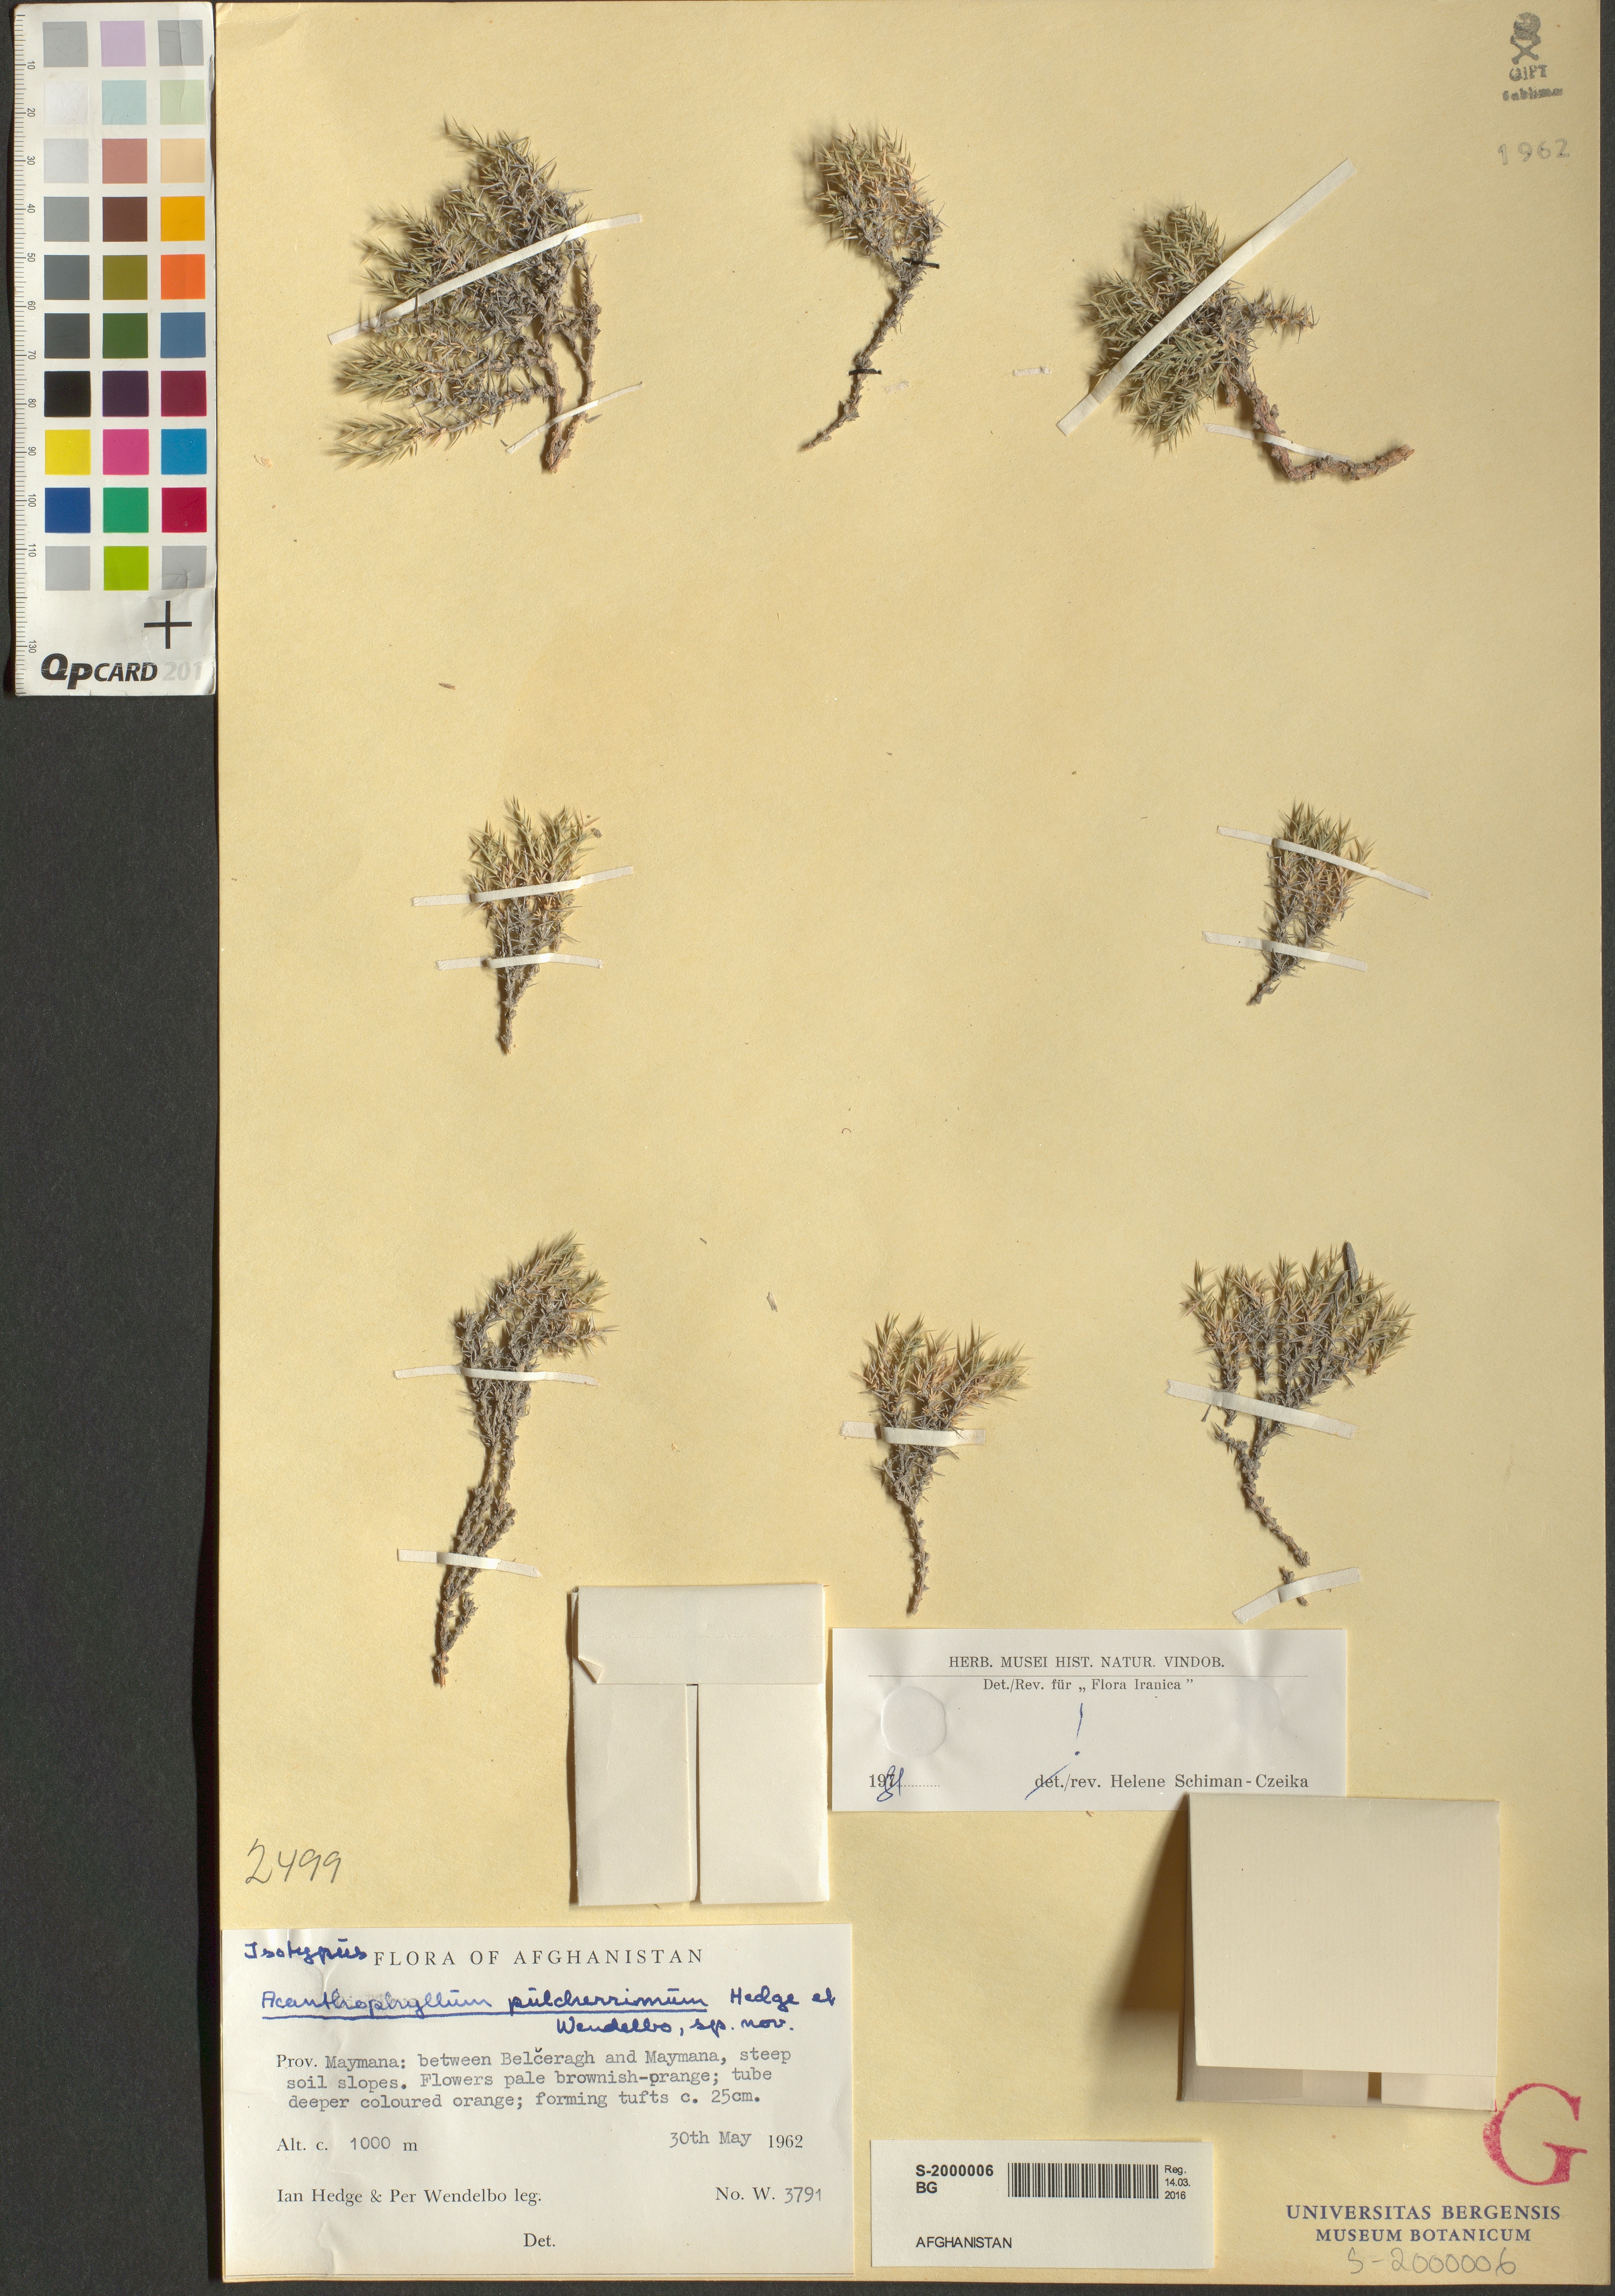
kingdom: Plantae
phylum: Tracheophyta
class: Magnoliopsida
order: Caryophyllales
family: Caryophyllaceae
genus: Acanthophyllum
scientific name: Acanthophyllum pulcherrimum
